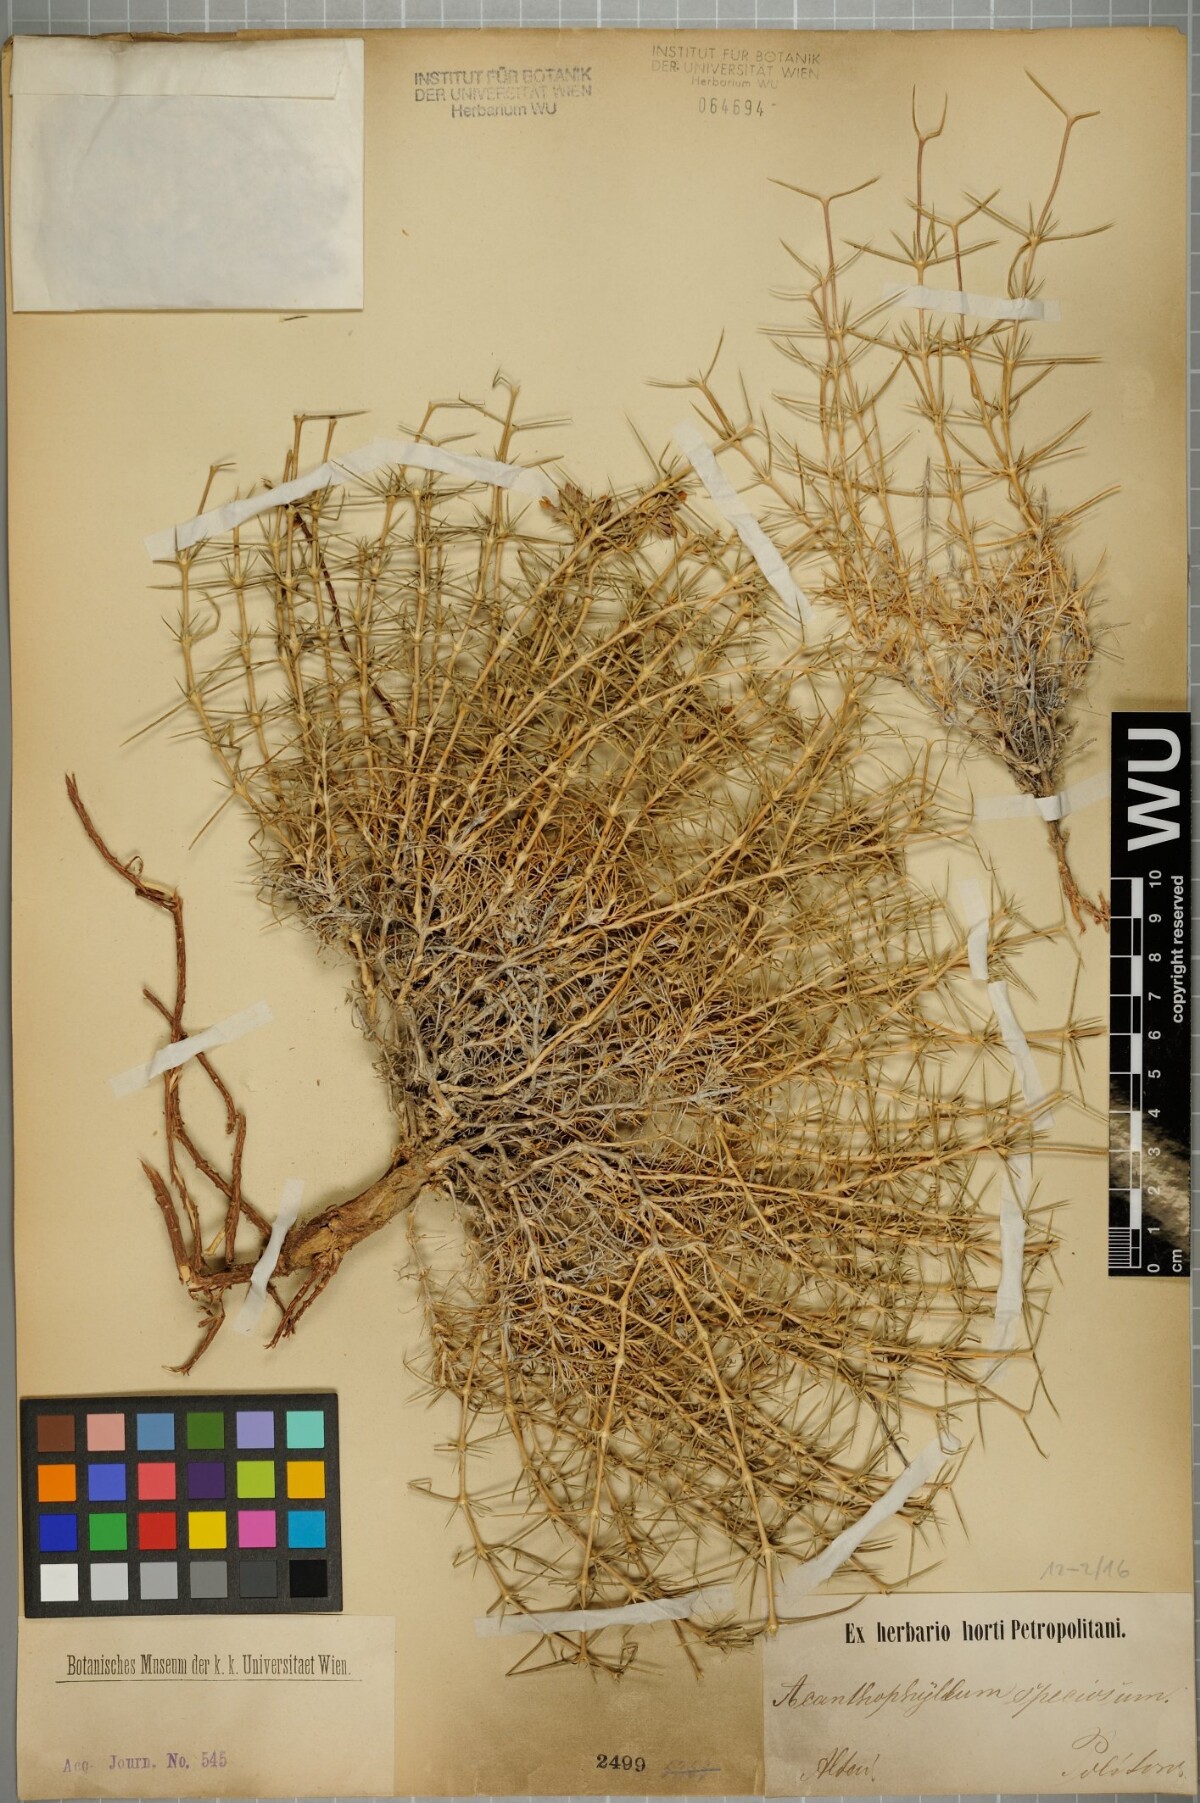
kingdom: Plantae
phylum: Tracheophyta
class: Magnoliopsida
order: Caryophyllales
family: Caryophyllaceae
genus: Acanthophyllum
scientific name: Acanthophyllum speciosum
